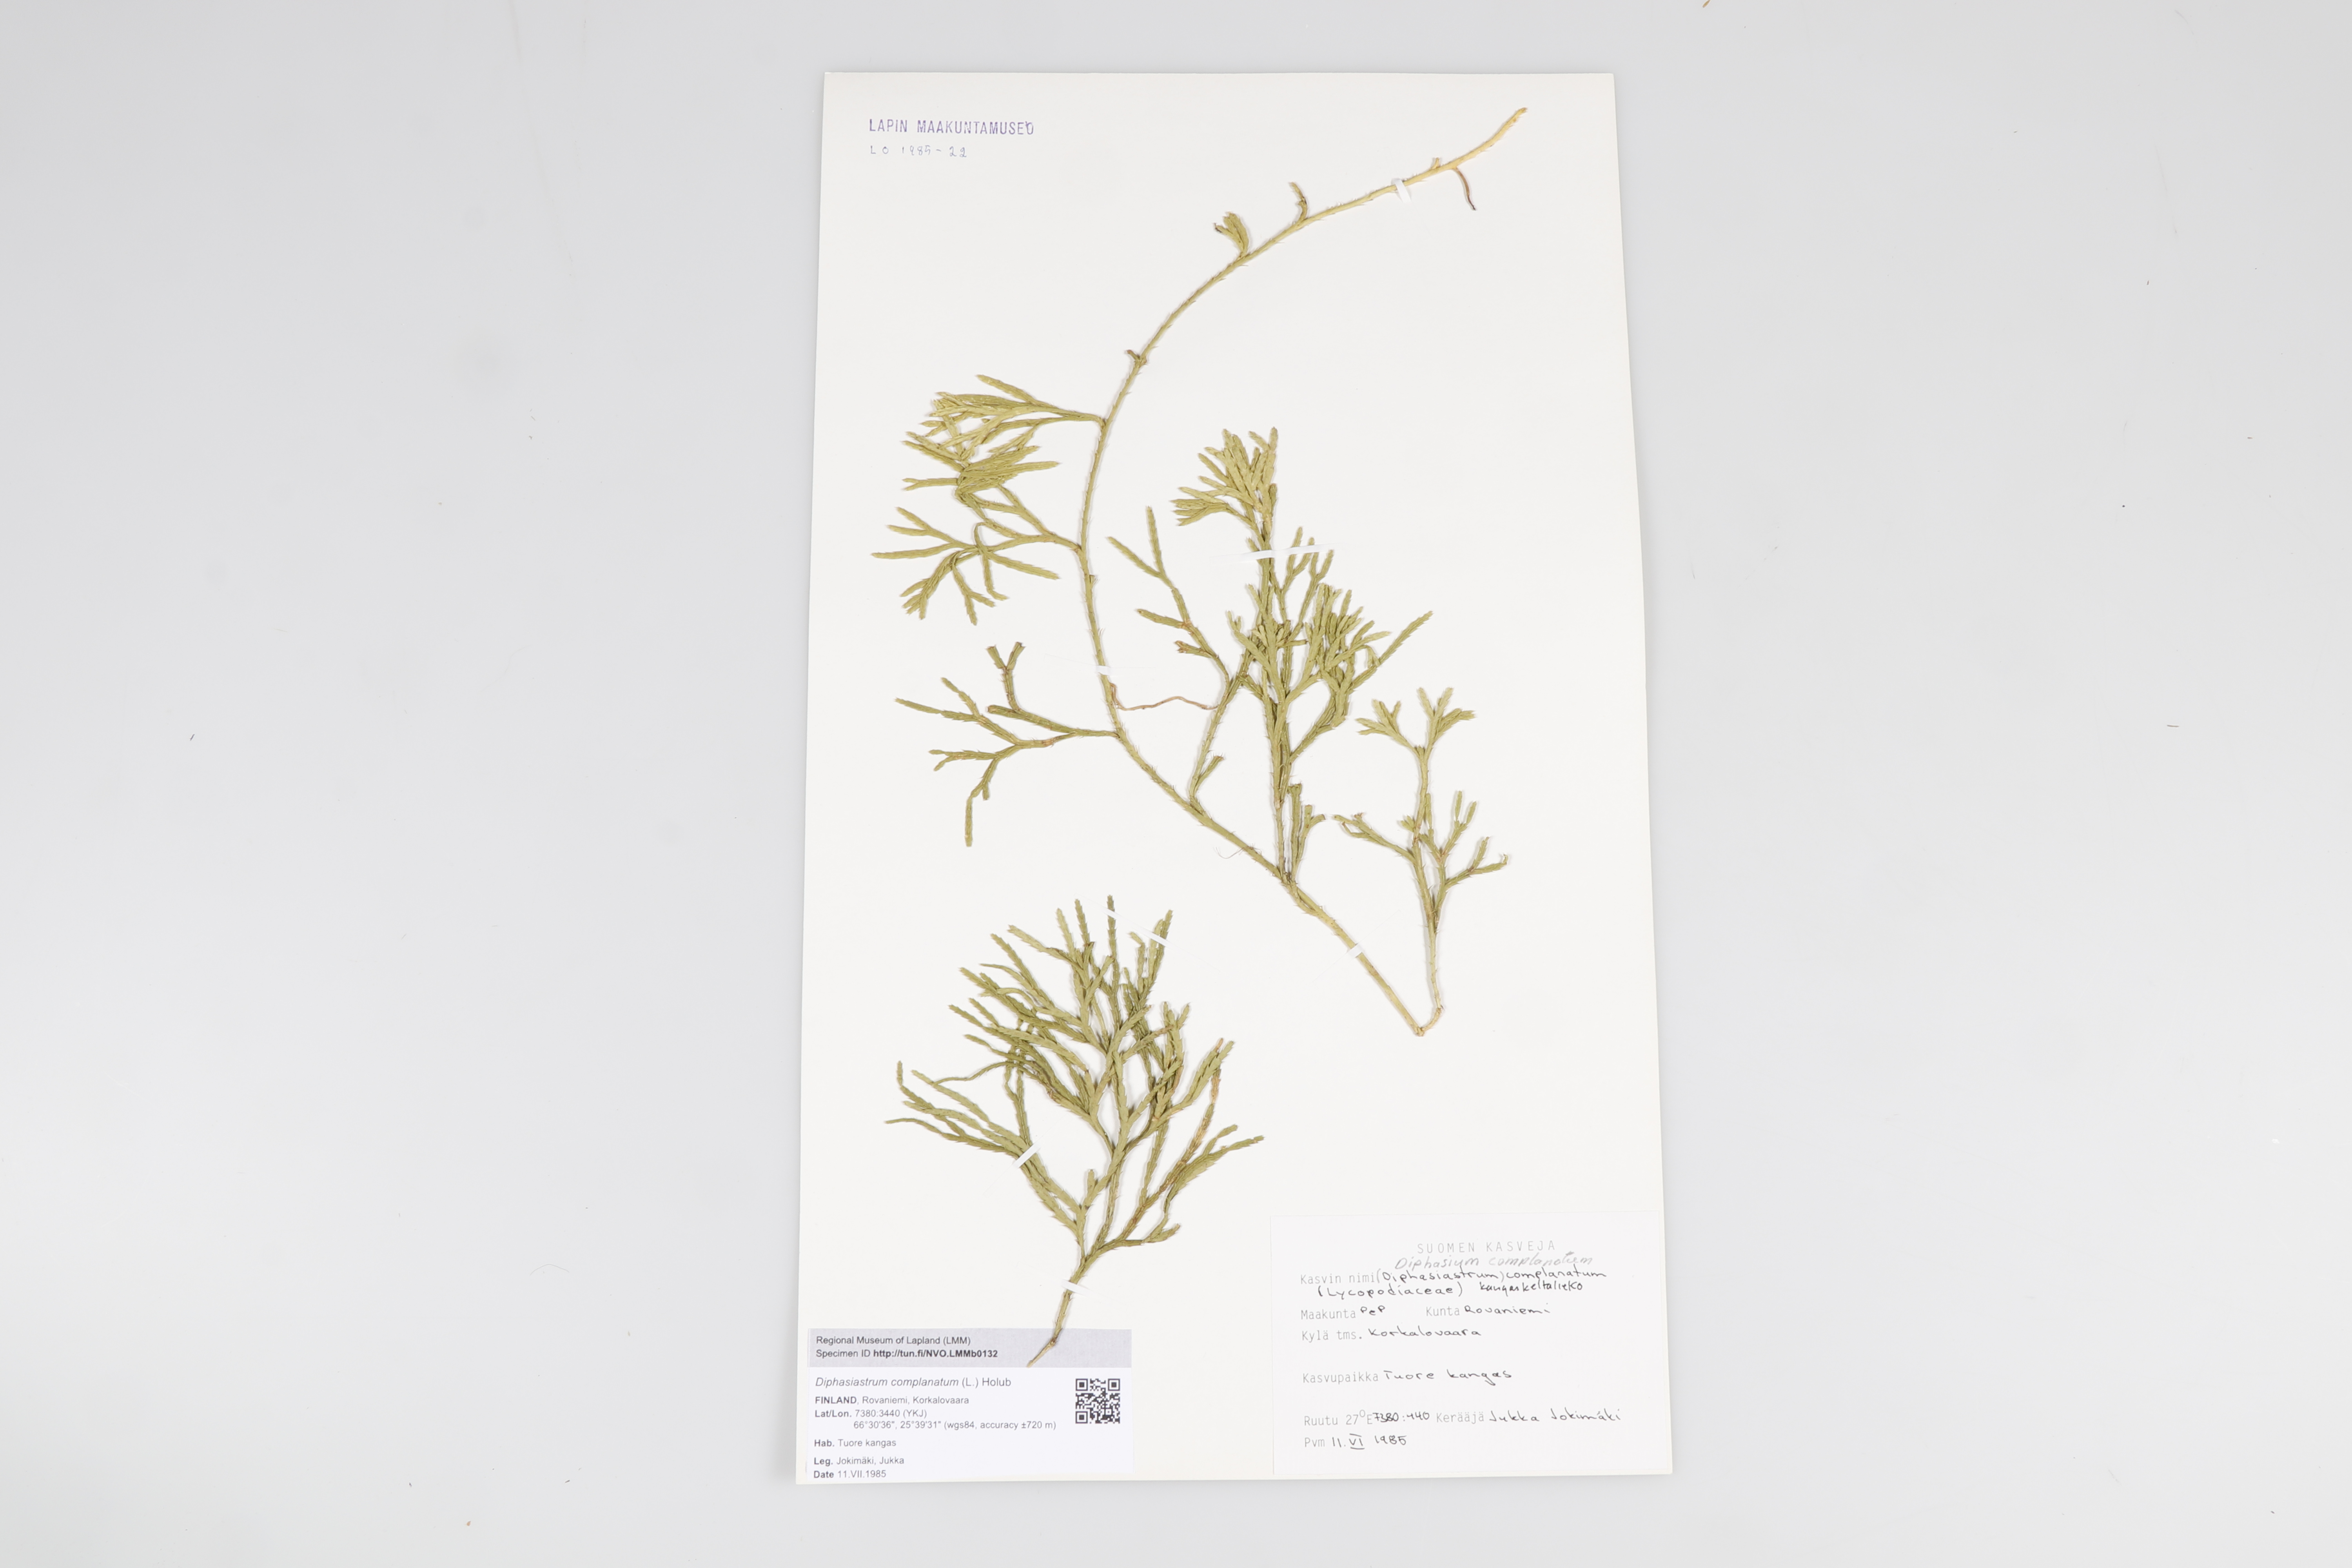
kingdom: Plantae
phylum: Tracheophyta
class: Lycopodiopsida
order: Lycopodiales
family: Lycopodiaceae
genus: Diphasiastrum
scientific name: Diphasiastrum
